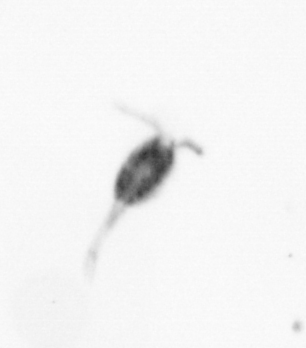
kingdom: Animalia
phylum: Arthropoda
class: Copepoda
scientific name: Copepoda
